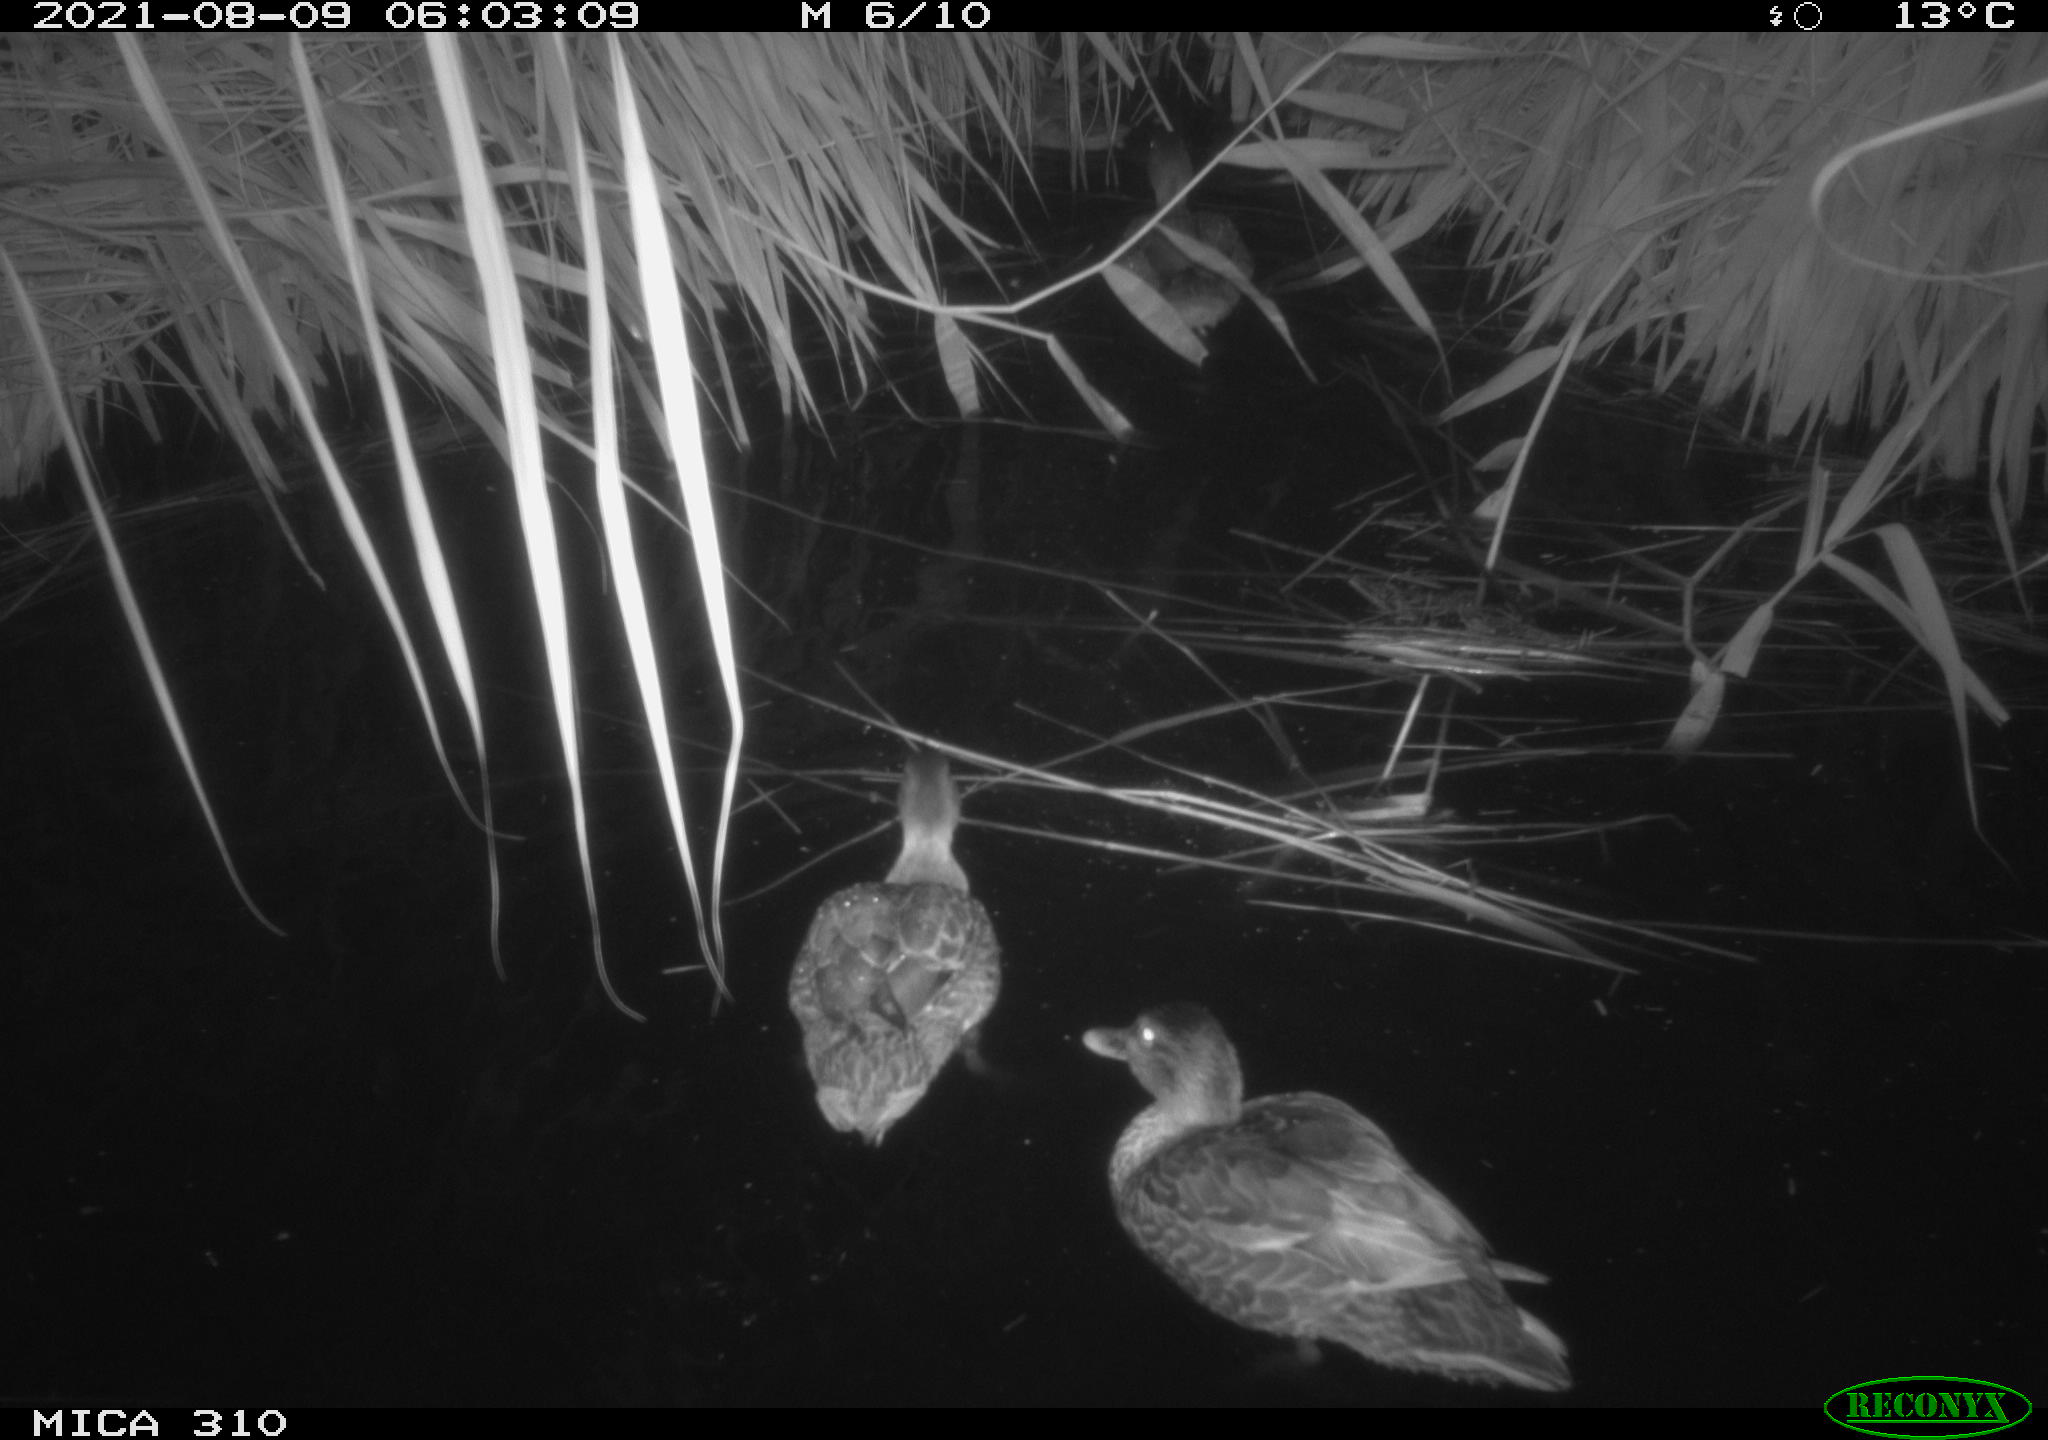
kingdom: Animalia
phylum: Chordata
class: Aves
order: Anseriformes
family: Anatidae
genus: Mareca
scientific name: Mareca strepera
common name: Gadwall
